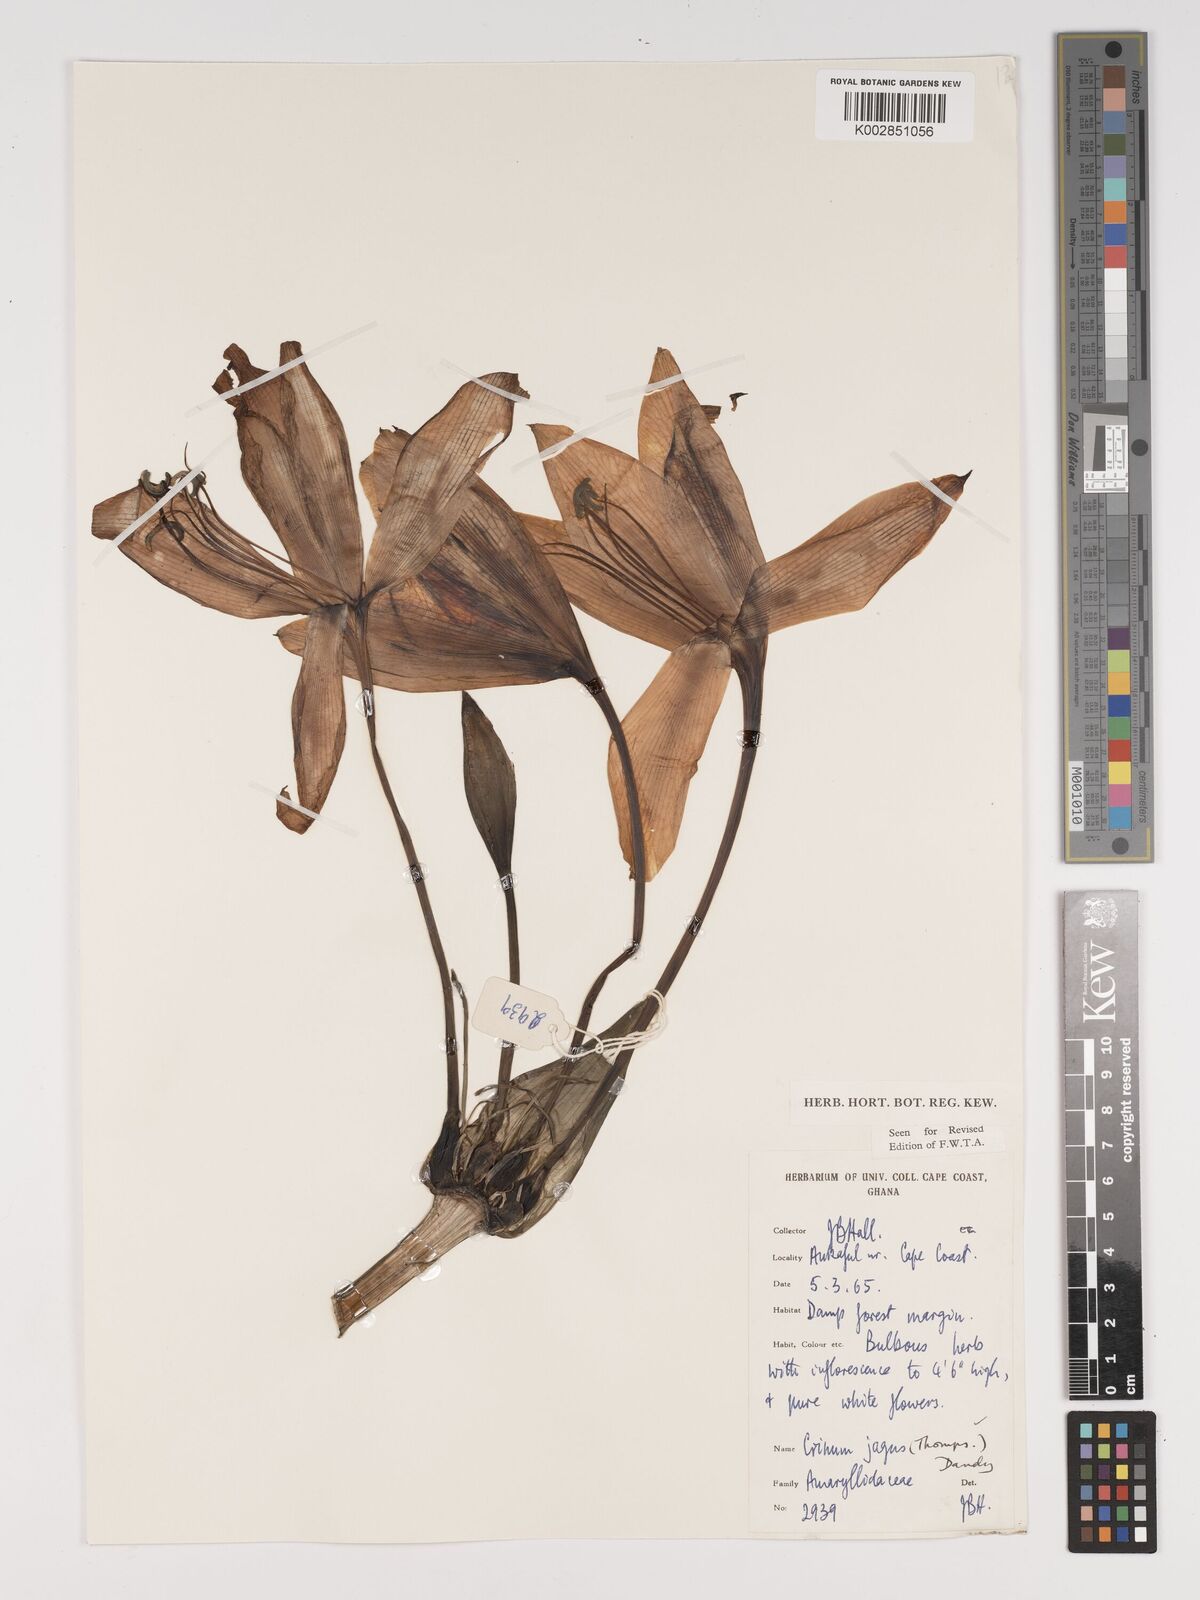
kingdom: Plantae
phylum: Tracheophyta
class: Liliopsida
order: Asparagales
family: Amaryllidaceae
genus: Crinum
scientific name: Crinum jagus
